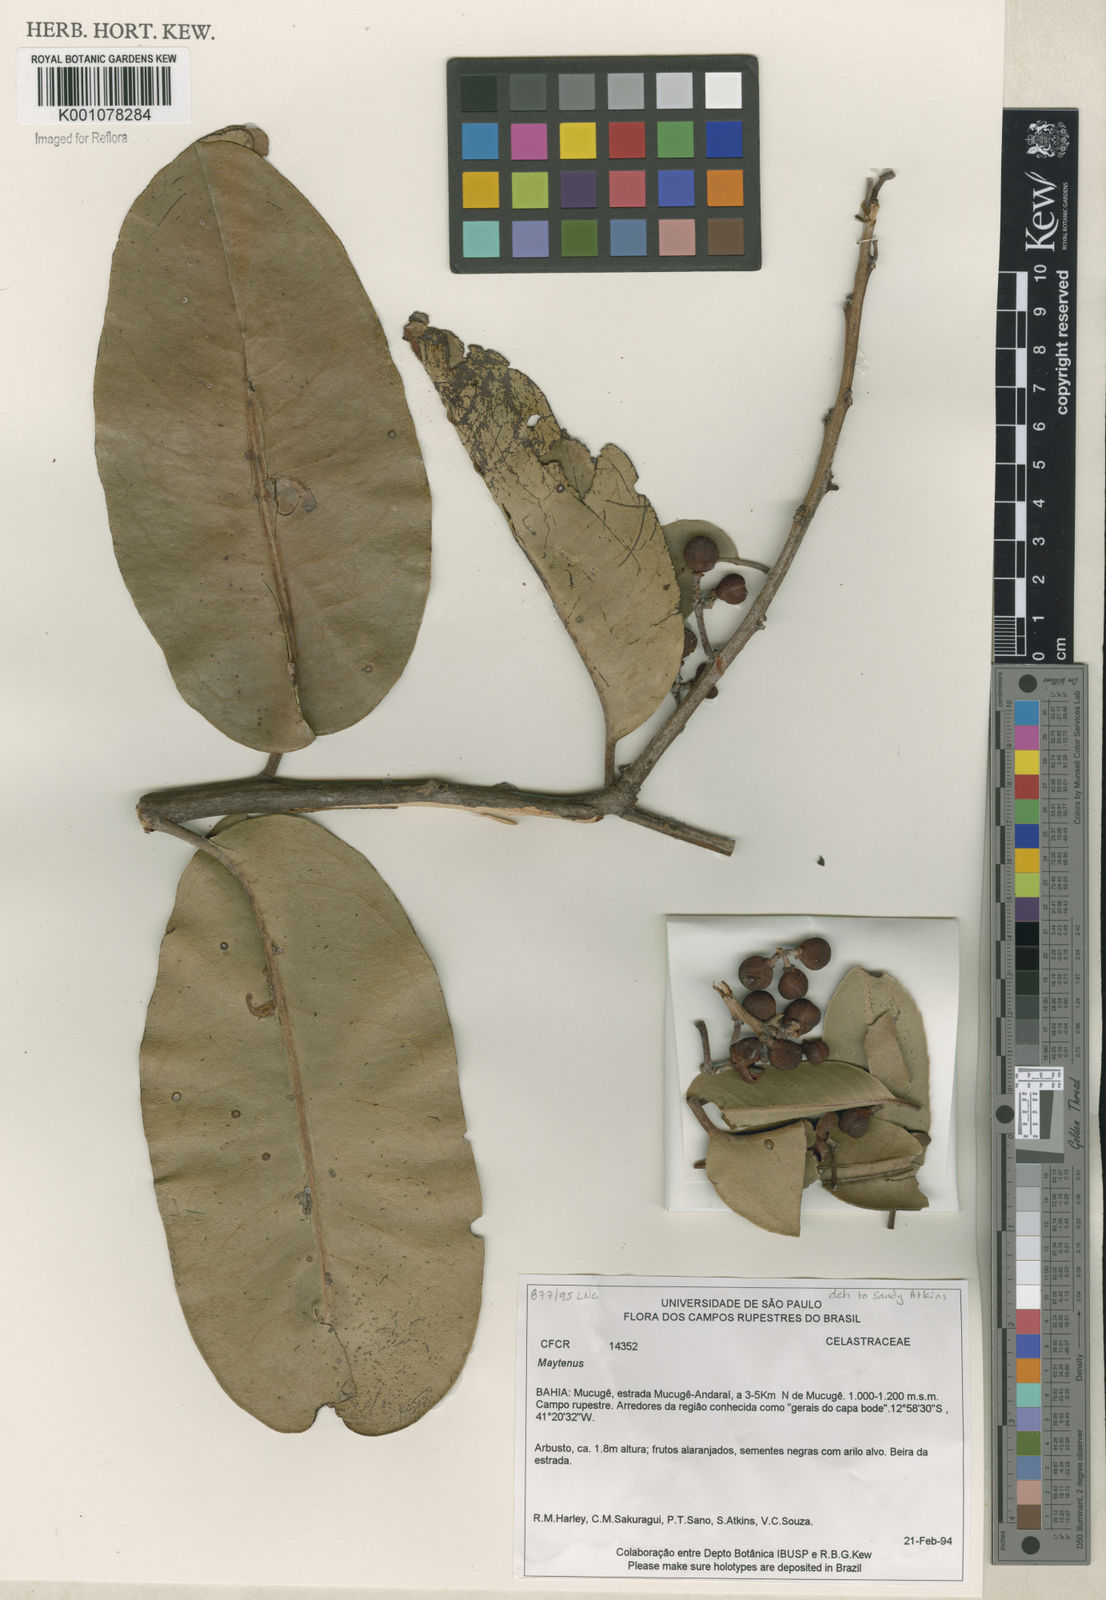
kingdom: Plantae
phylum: Tracheophyta
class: Magnoliopsida
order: Celastrales
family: Celastraceae
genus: Maytenus
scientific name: Maytenus
